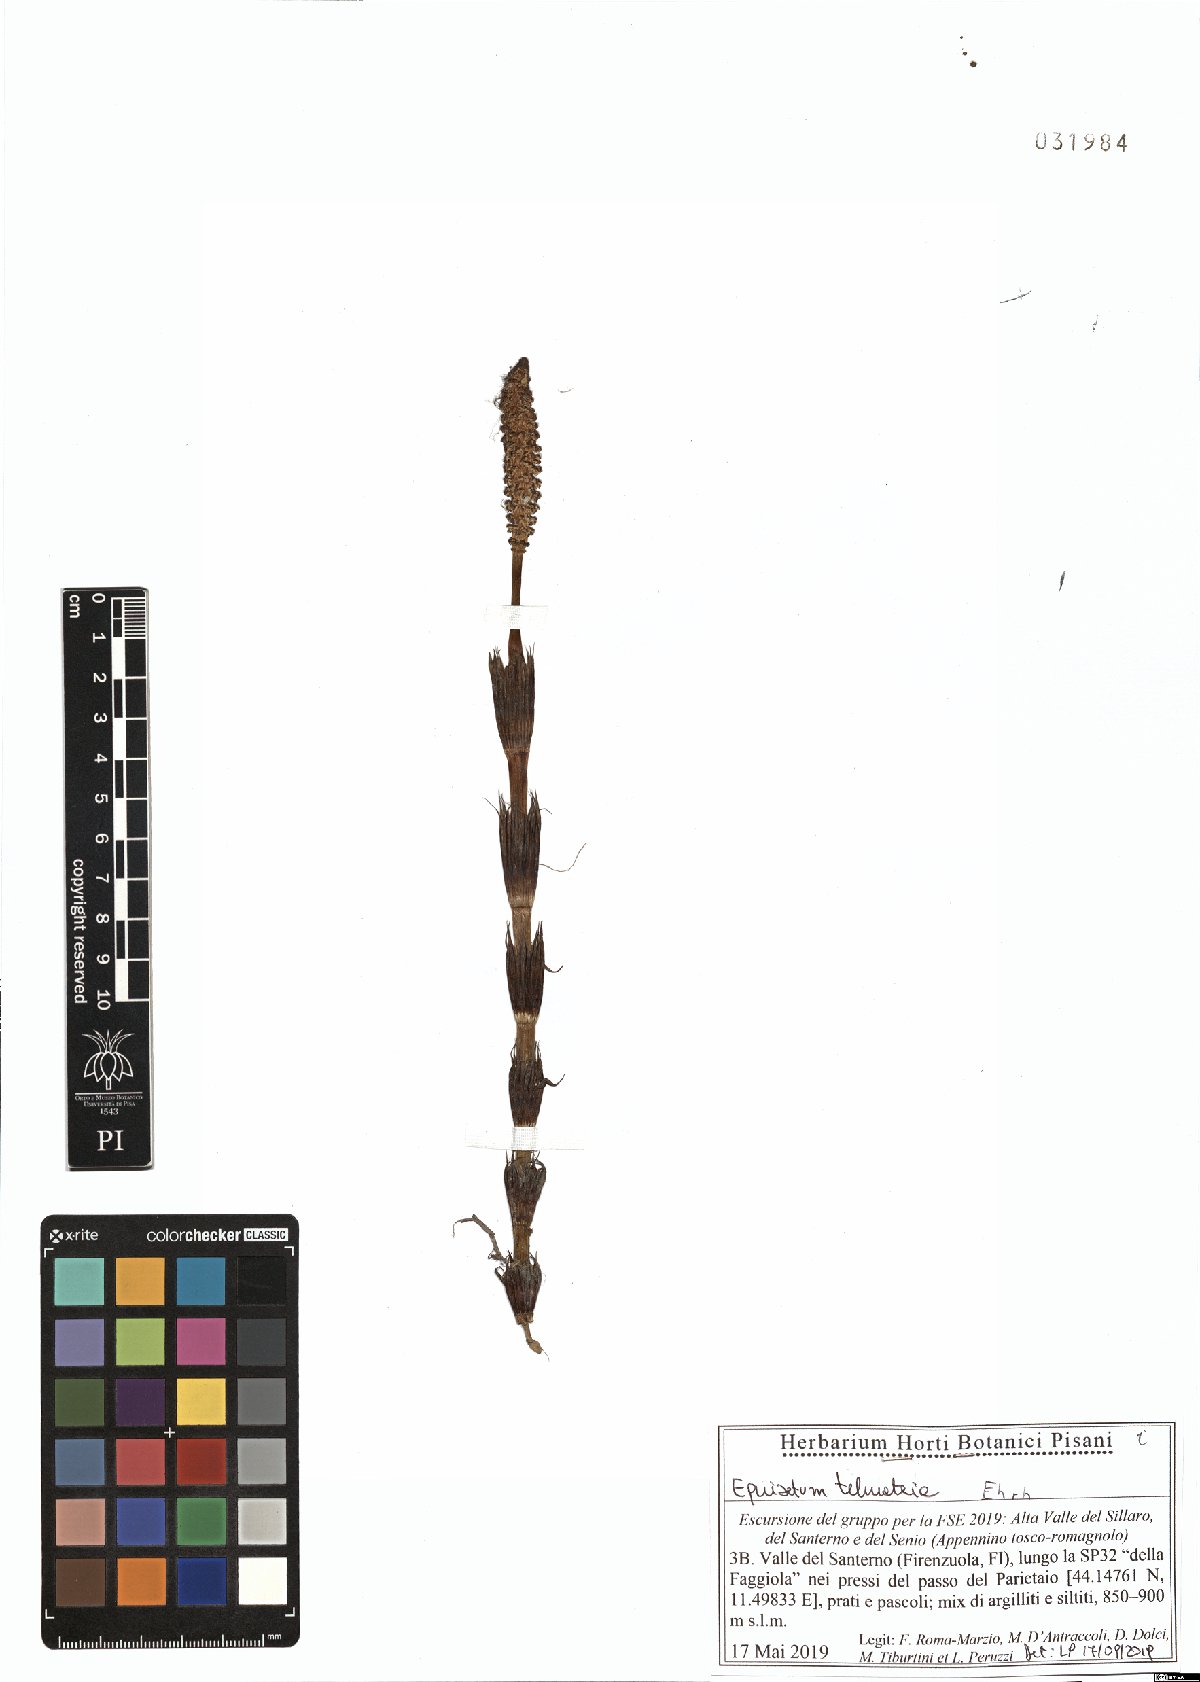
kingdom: Plantae
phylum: Tracheophyta
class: Polypodiopsida
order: Equisetales
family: Equisetaceae
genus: Equisetum
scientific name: Equisetum telmateia
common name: Great horsetail
